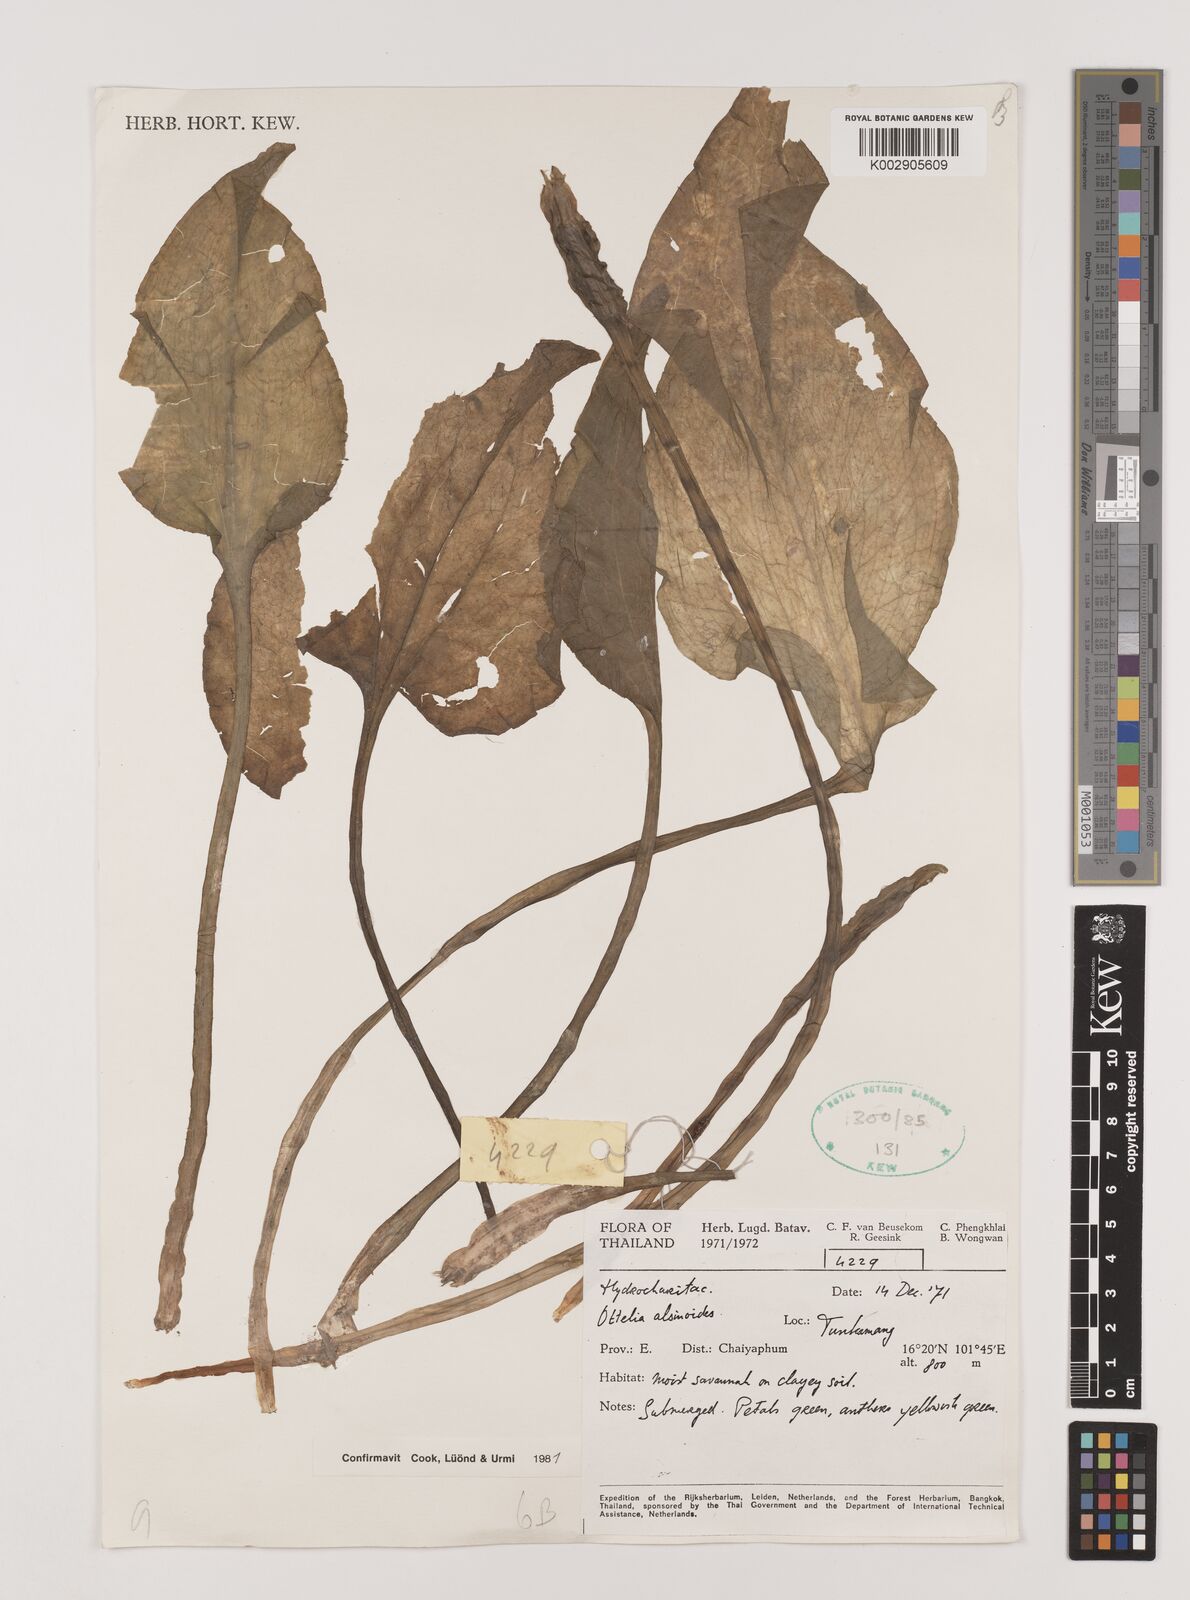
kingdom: Plantae
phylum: Tracheophyta
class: Liliopsida
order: Alismatales
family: Hydrocharitaceae
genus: Ottelia
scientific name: Ottelia alismoides
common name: Duck-lettuce
